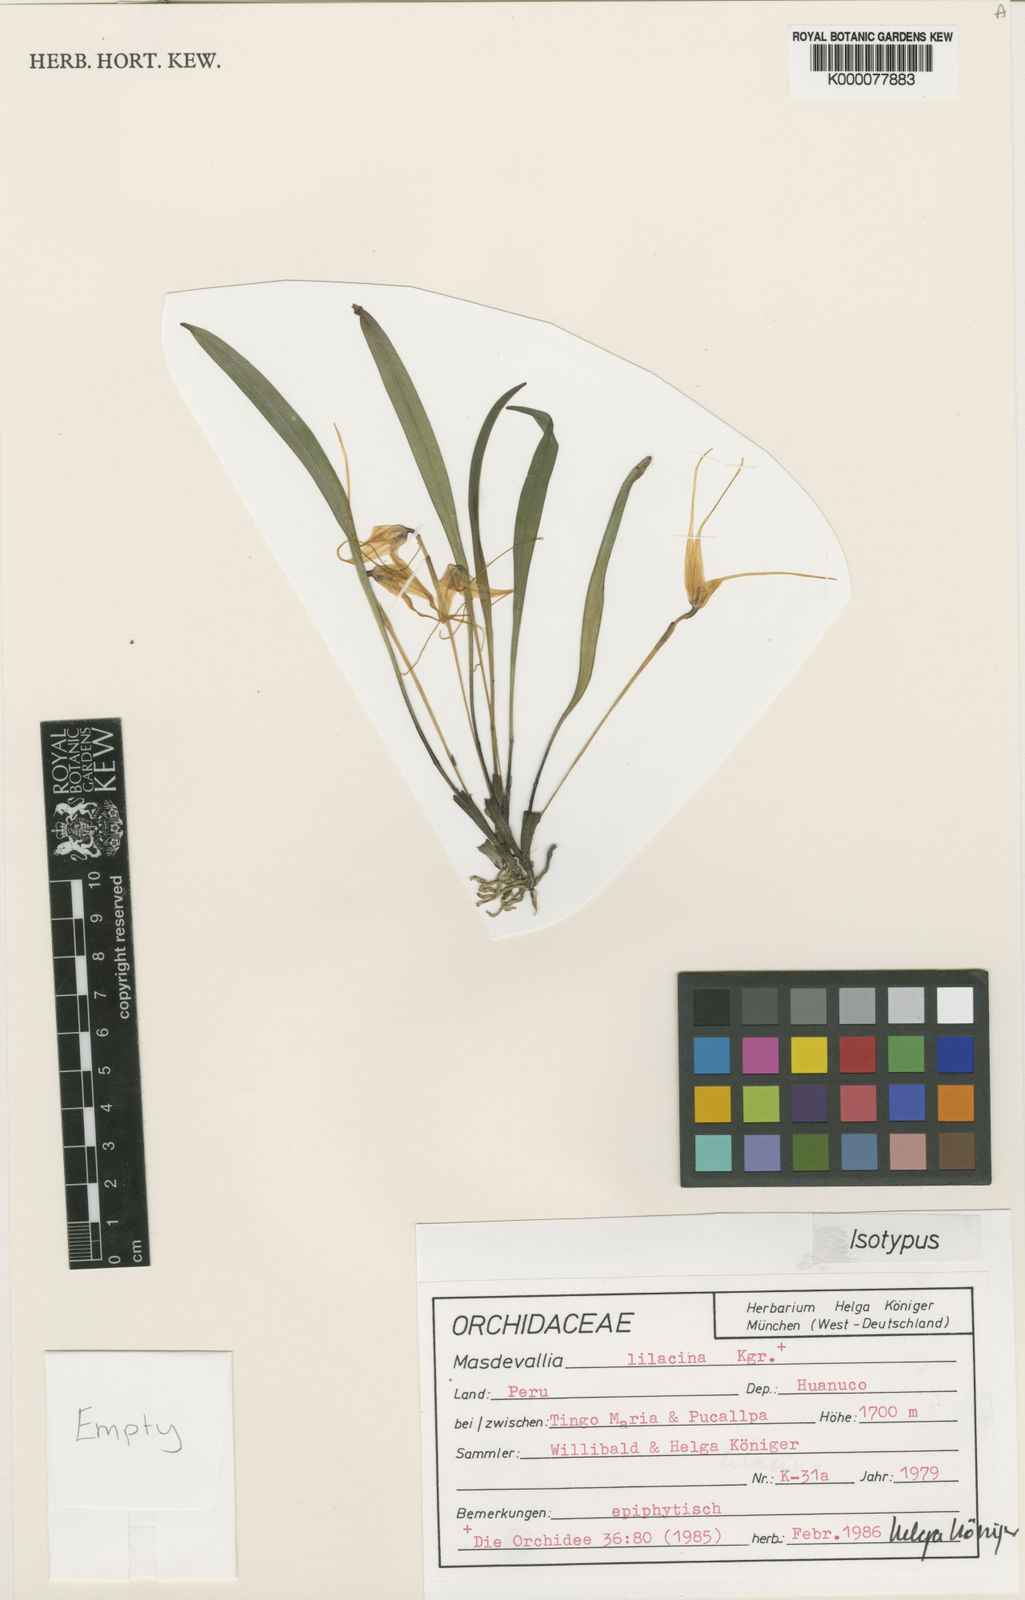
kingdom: Plantae
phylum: Tracheophyta
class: Liliopsida
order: Asparagales
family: Orchidaceae
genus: Masdevallia
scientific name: Masdevallia
